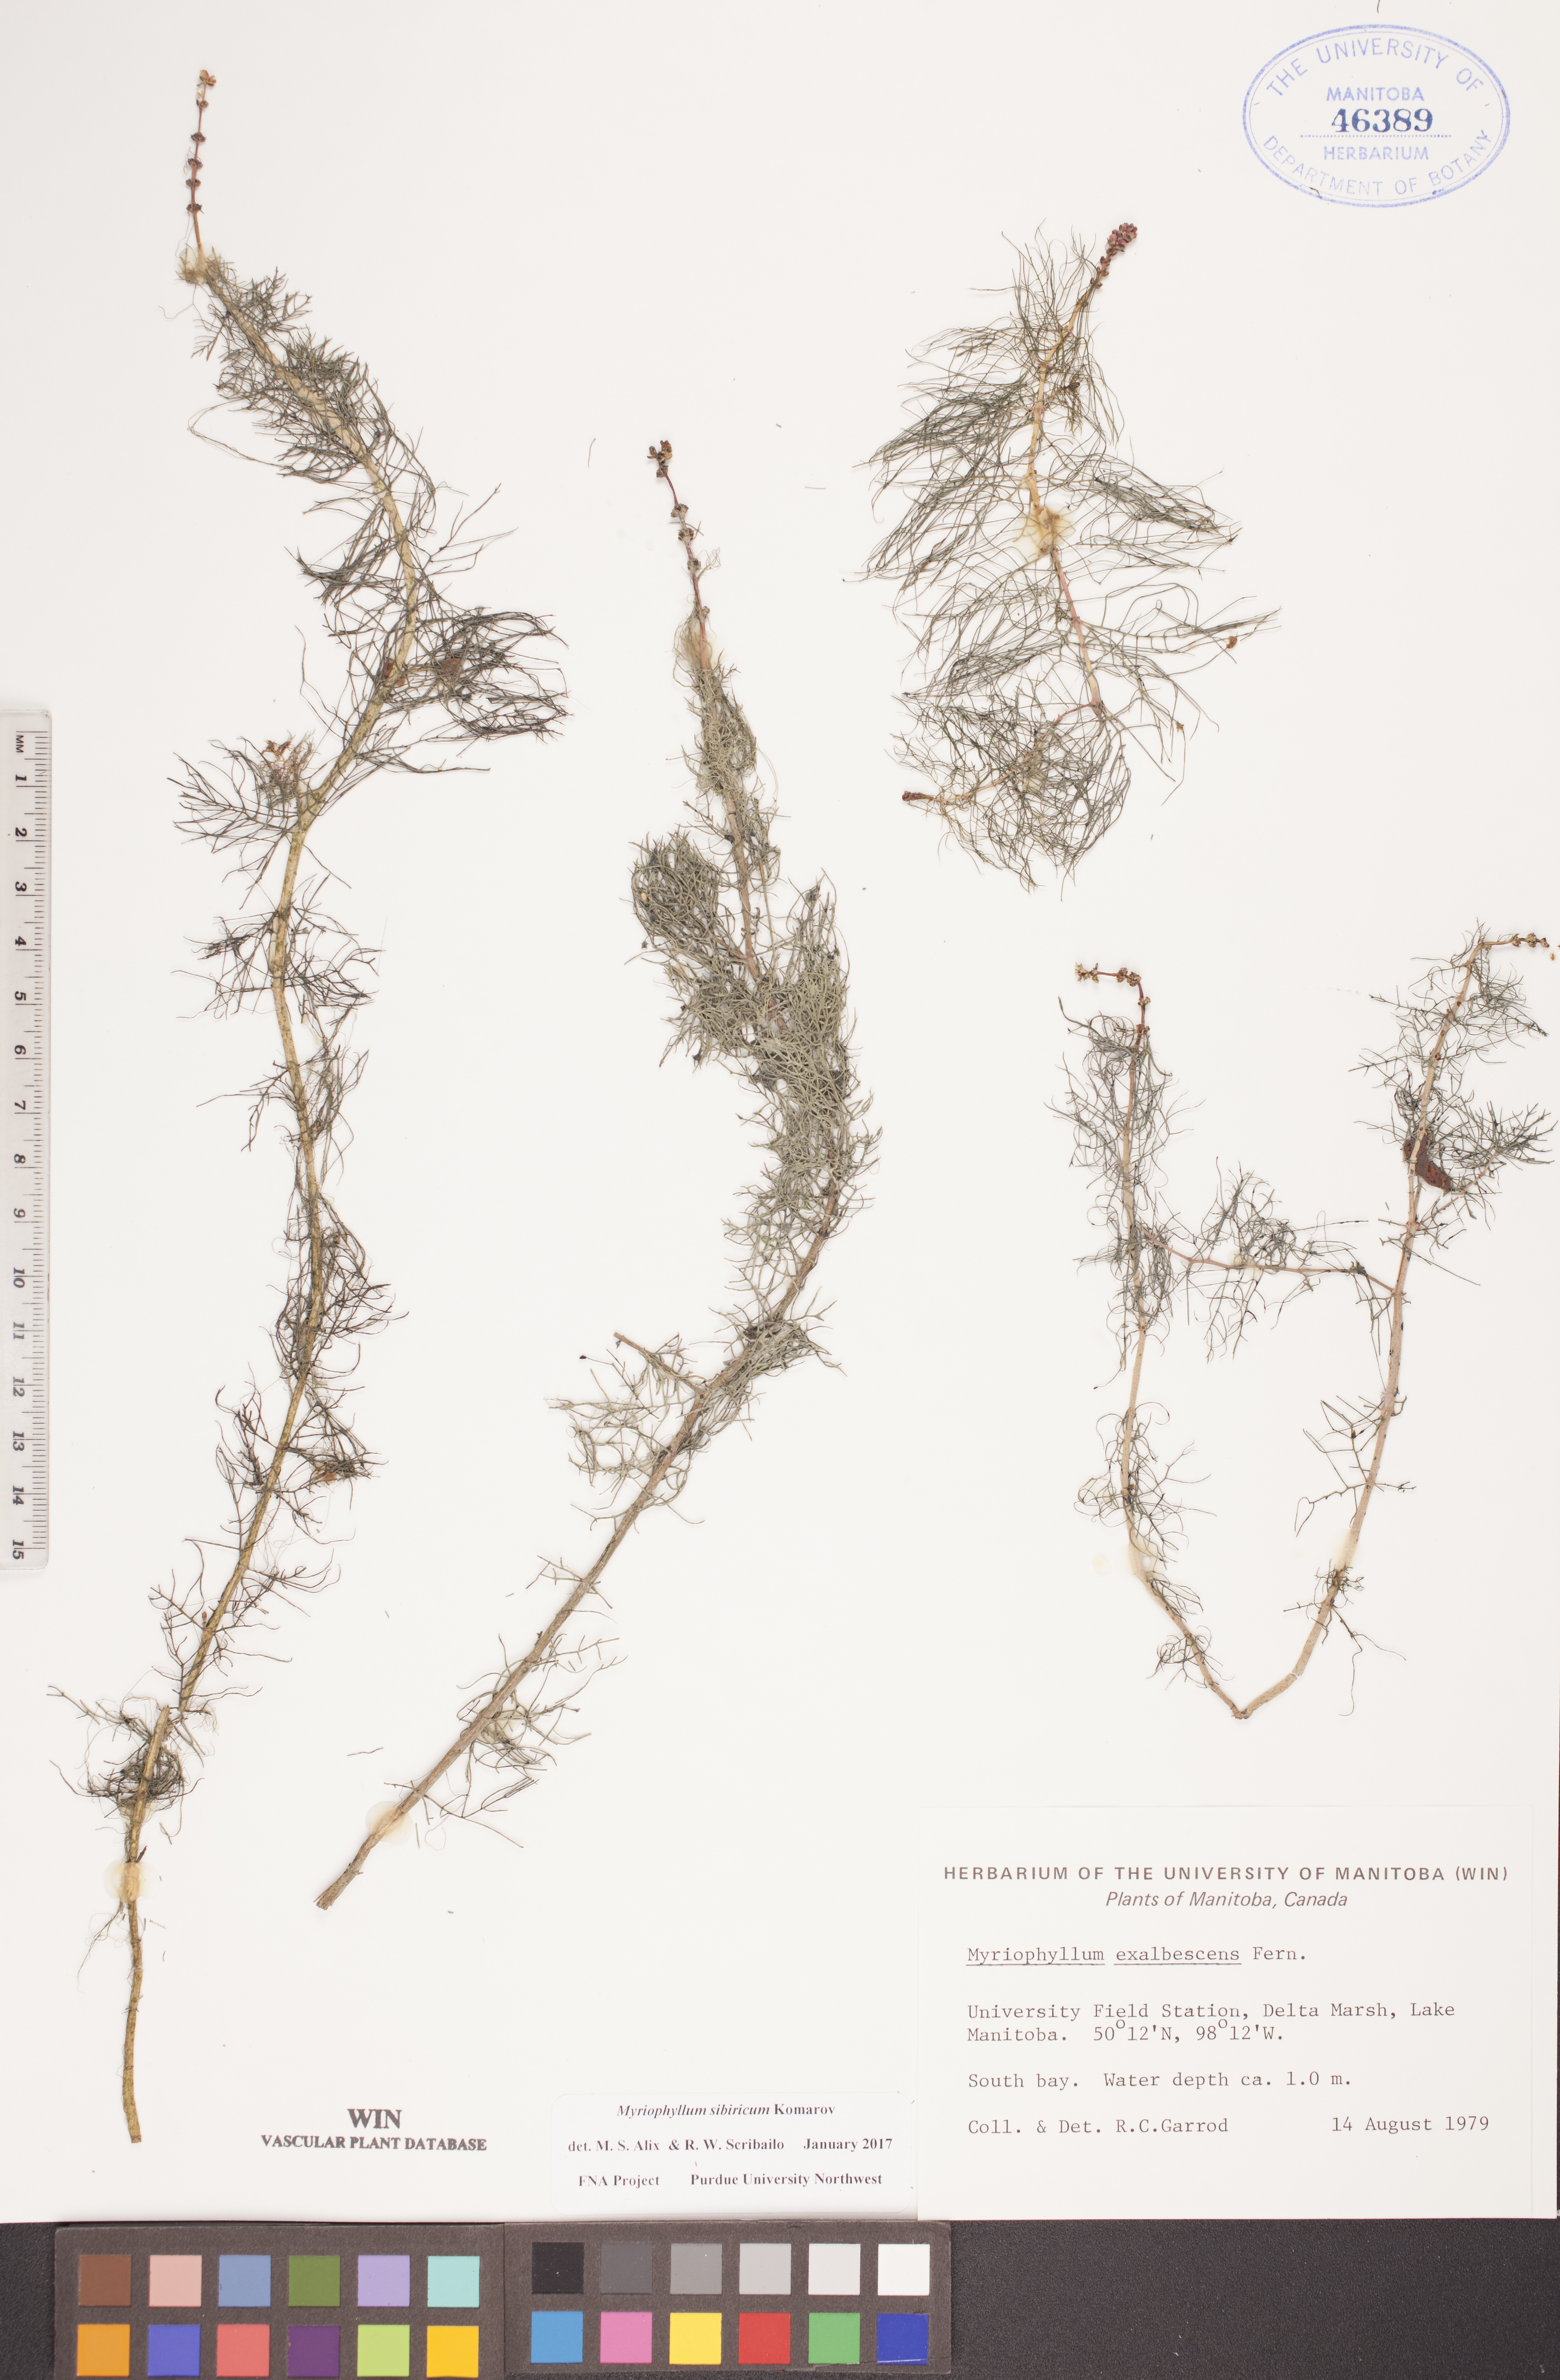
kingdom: Plantae
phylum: Tracheophyta
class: Magnoliopsida
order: Saxifragales
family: Haloragaceae
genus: Myriophyllum
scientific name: Myriophyllum sibiricum
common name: Siberian water-milfoil
